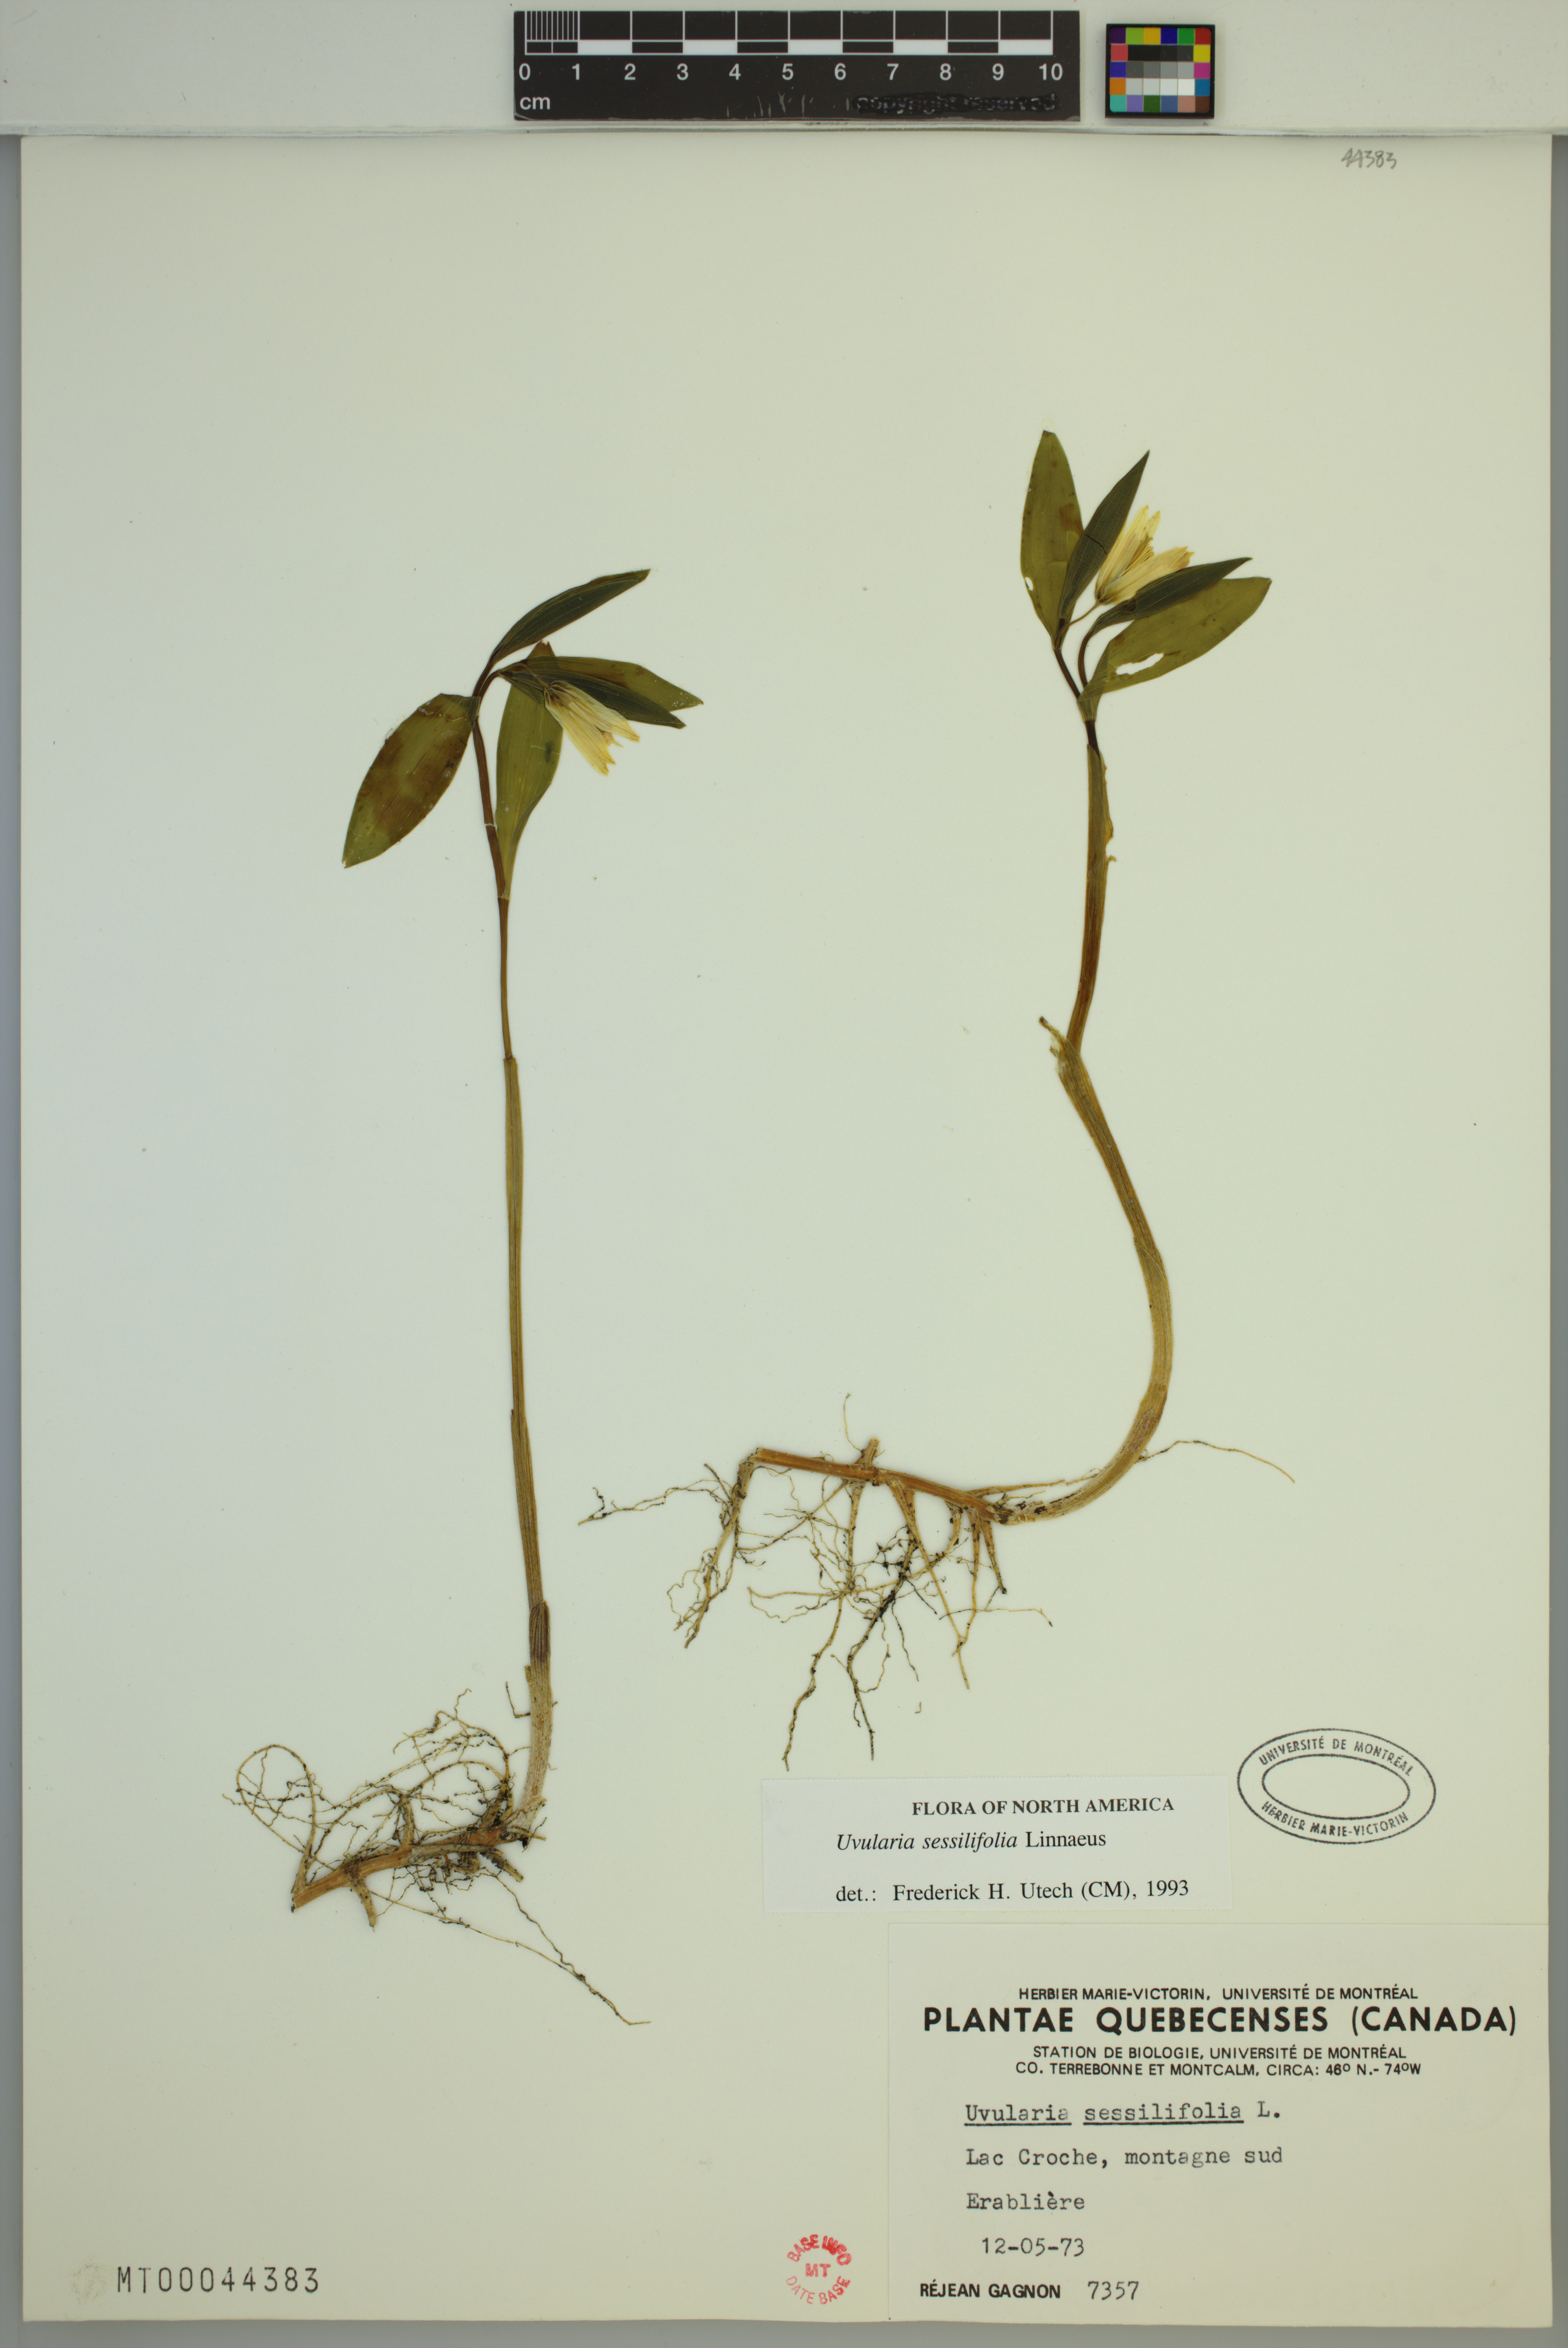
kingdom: Plantae
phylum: Tracheophyta
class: Liliopsida
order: Liliales
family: Colchicaceae
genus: Uvularia
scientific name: Uvularia sessilifolia
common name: Straw-lily
